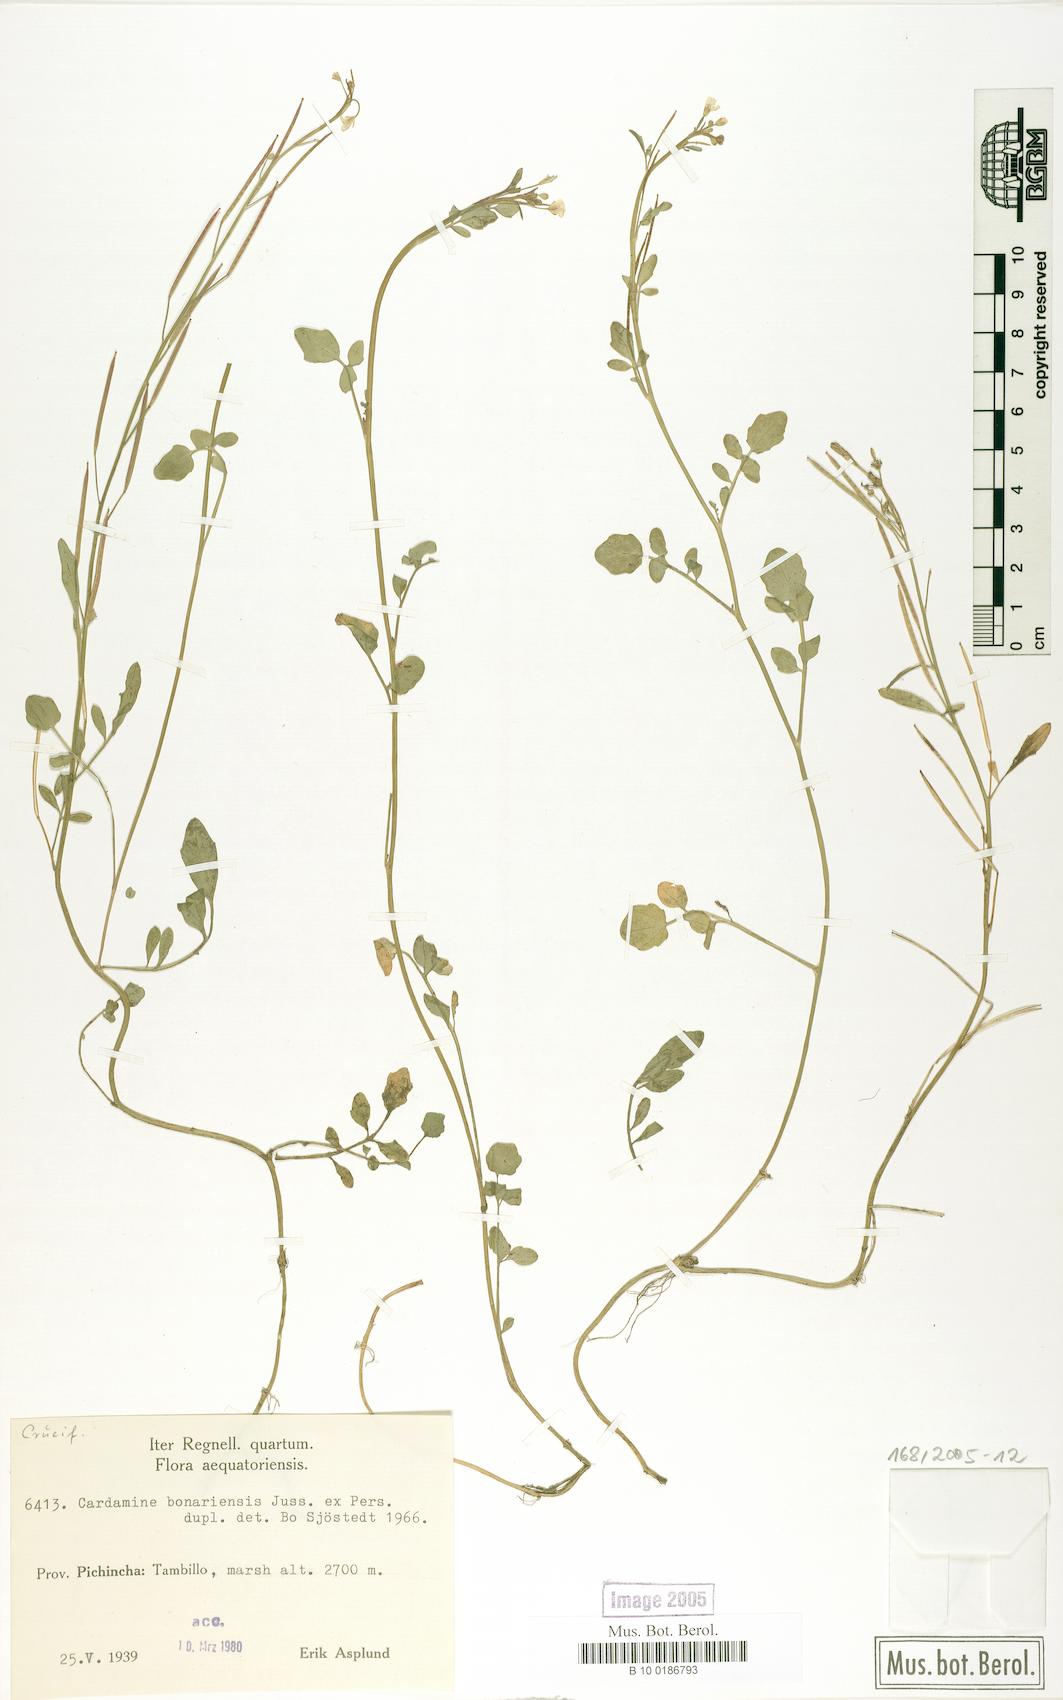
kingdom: Plantae
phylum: Tracheophyta
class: Magnoliopsida
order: Brassicales
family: Brassicaceae
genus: Cardamine
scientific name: Cardamine bonariensis
